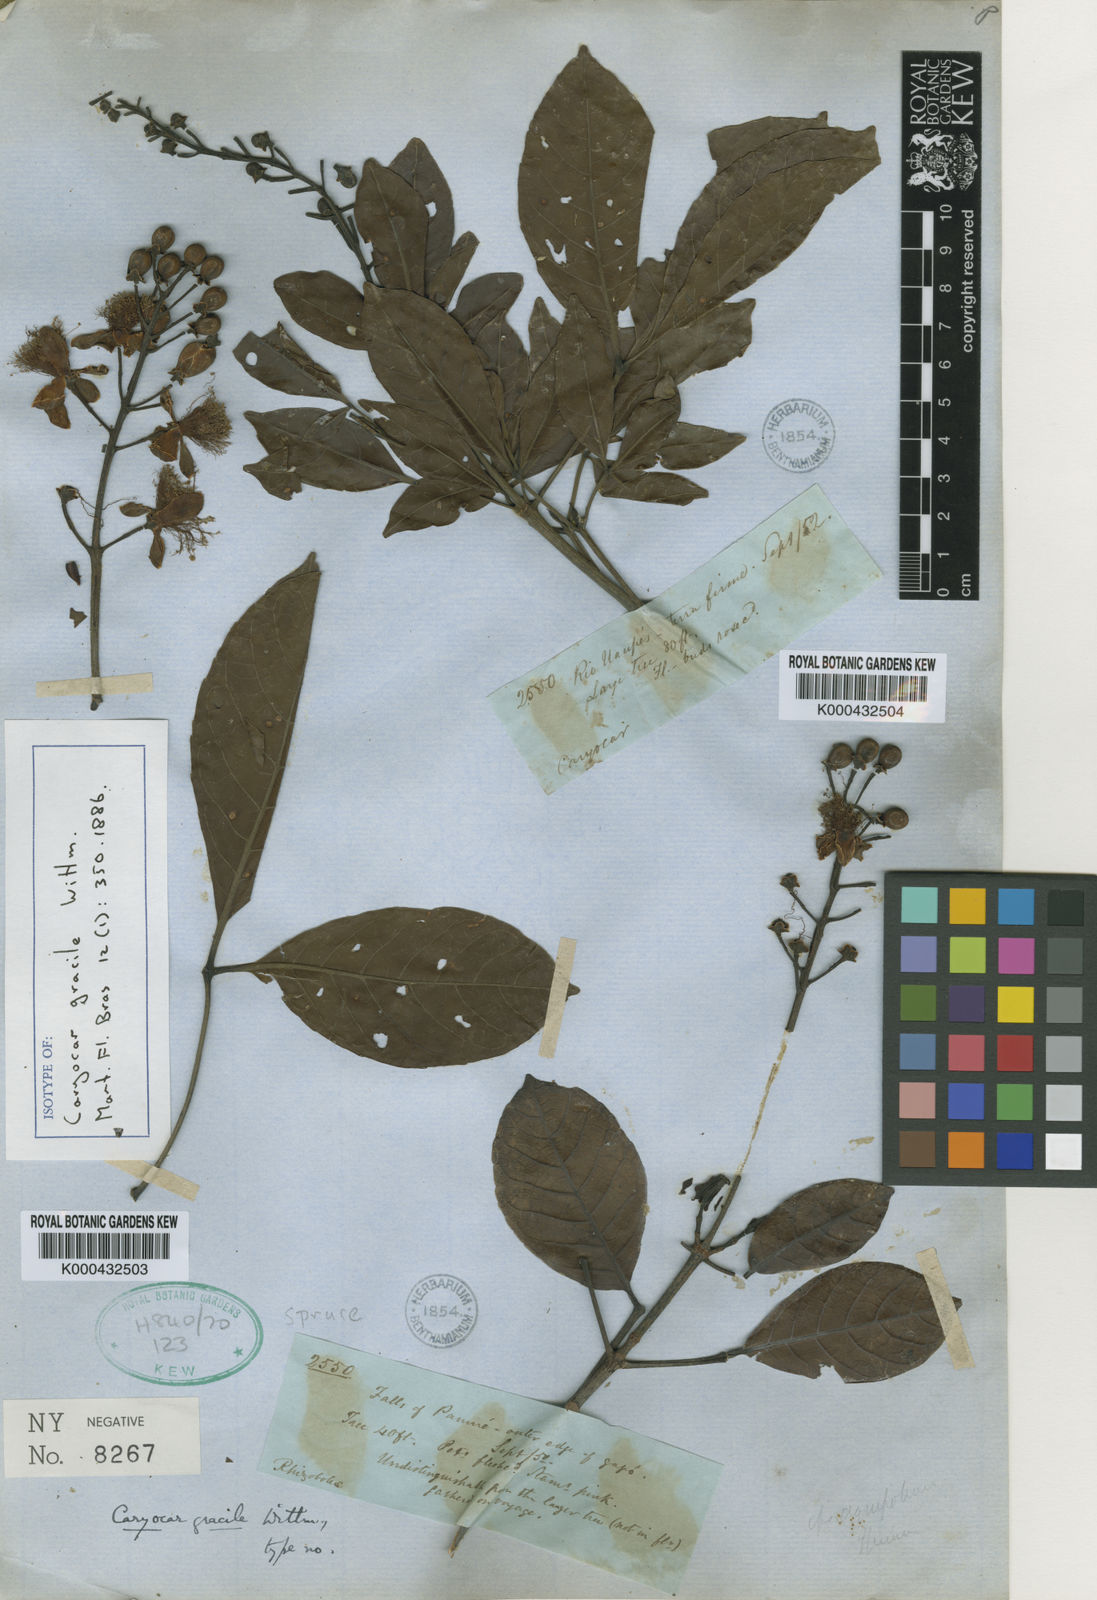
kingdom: Plantae
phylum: Tracheophyta
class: Magnoliopsida
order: Malpighiales
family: Caryocaraceae
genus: Caryocar
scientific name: Caryocar gracile
